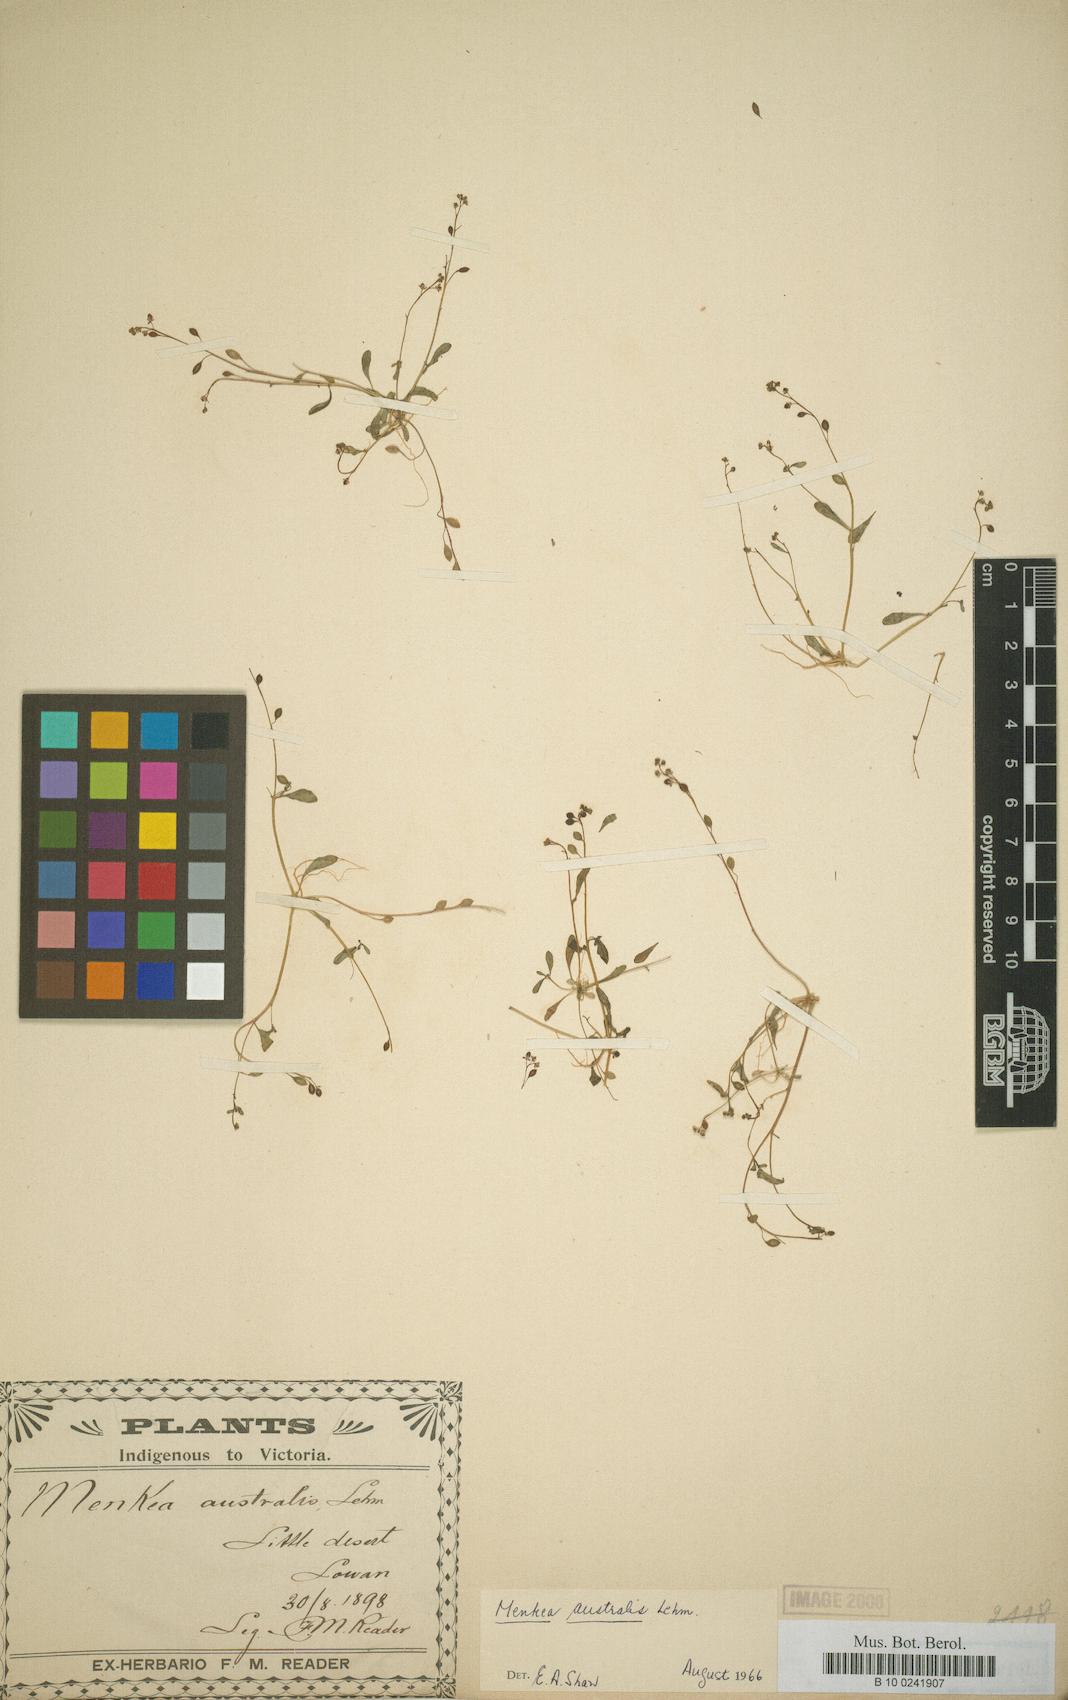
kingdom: Plantae
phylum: Tracheophyta
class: Magnoliopsida
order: Brassicales
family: Brassicaceae
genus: Menkea
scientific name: Menkea australis
